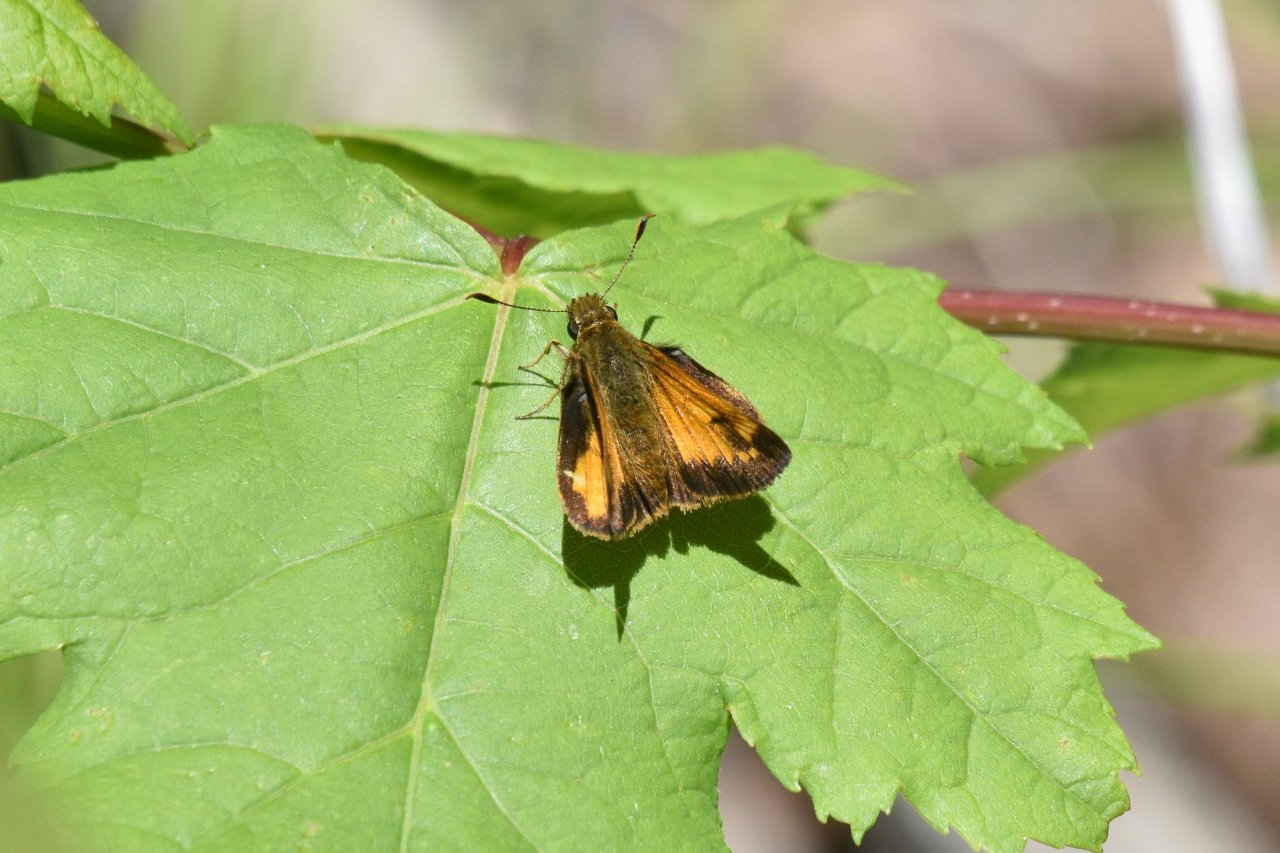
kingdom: Animalia
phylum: Arthropoda
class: Insecta
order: Lepidoptera
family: Hesperiidae
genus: Lon
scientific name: Lon hobomok
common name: Hobomok Skipper
